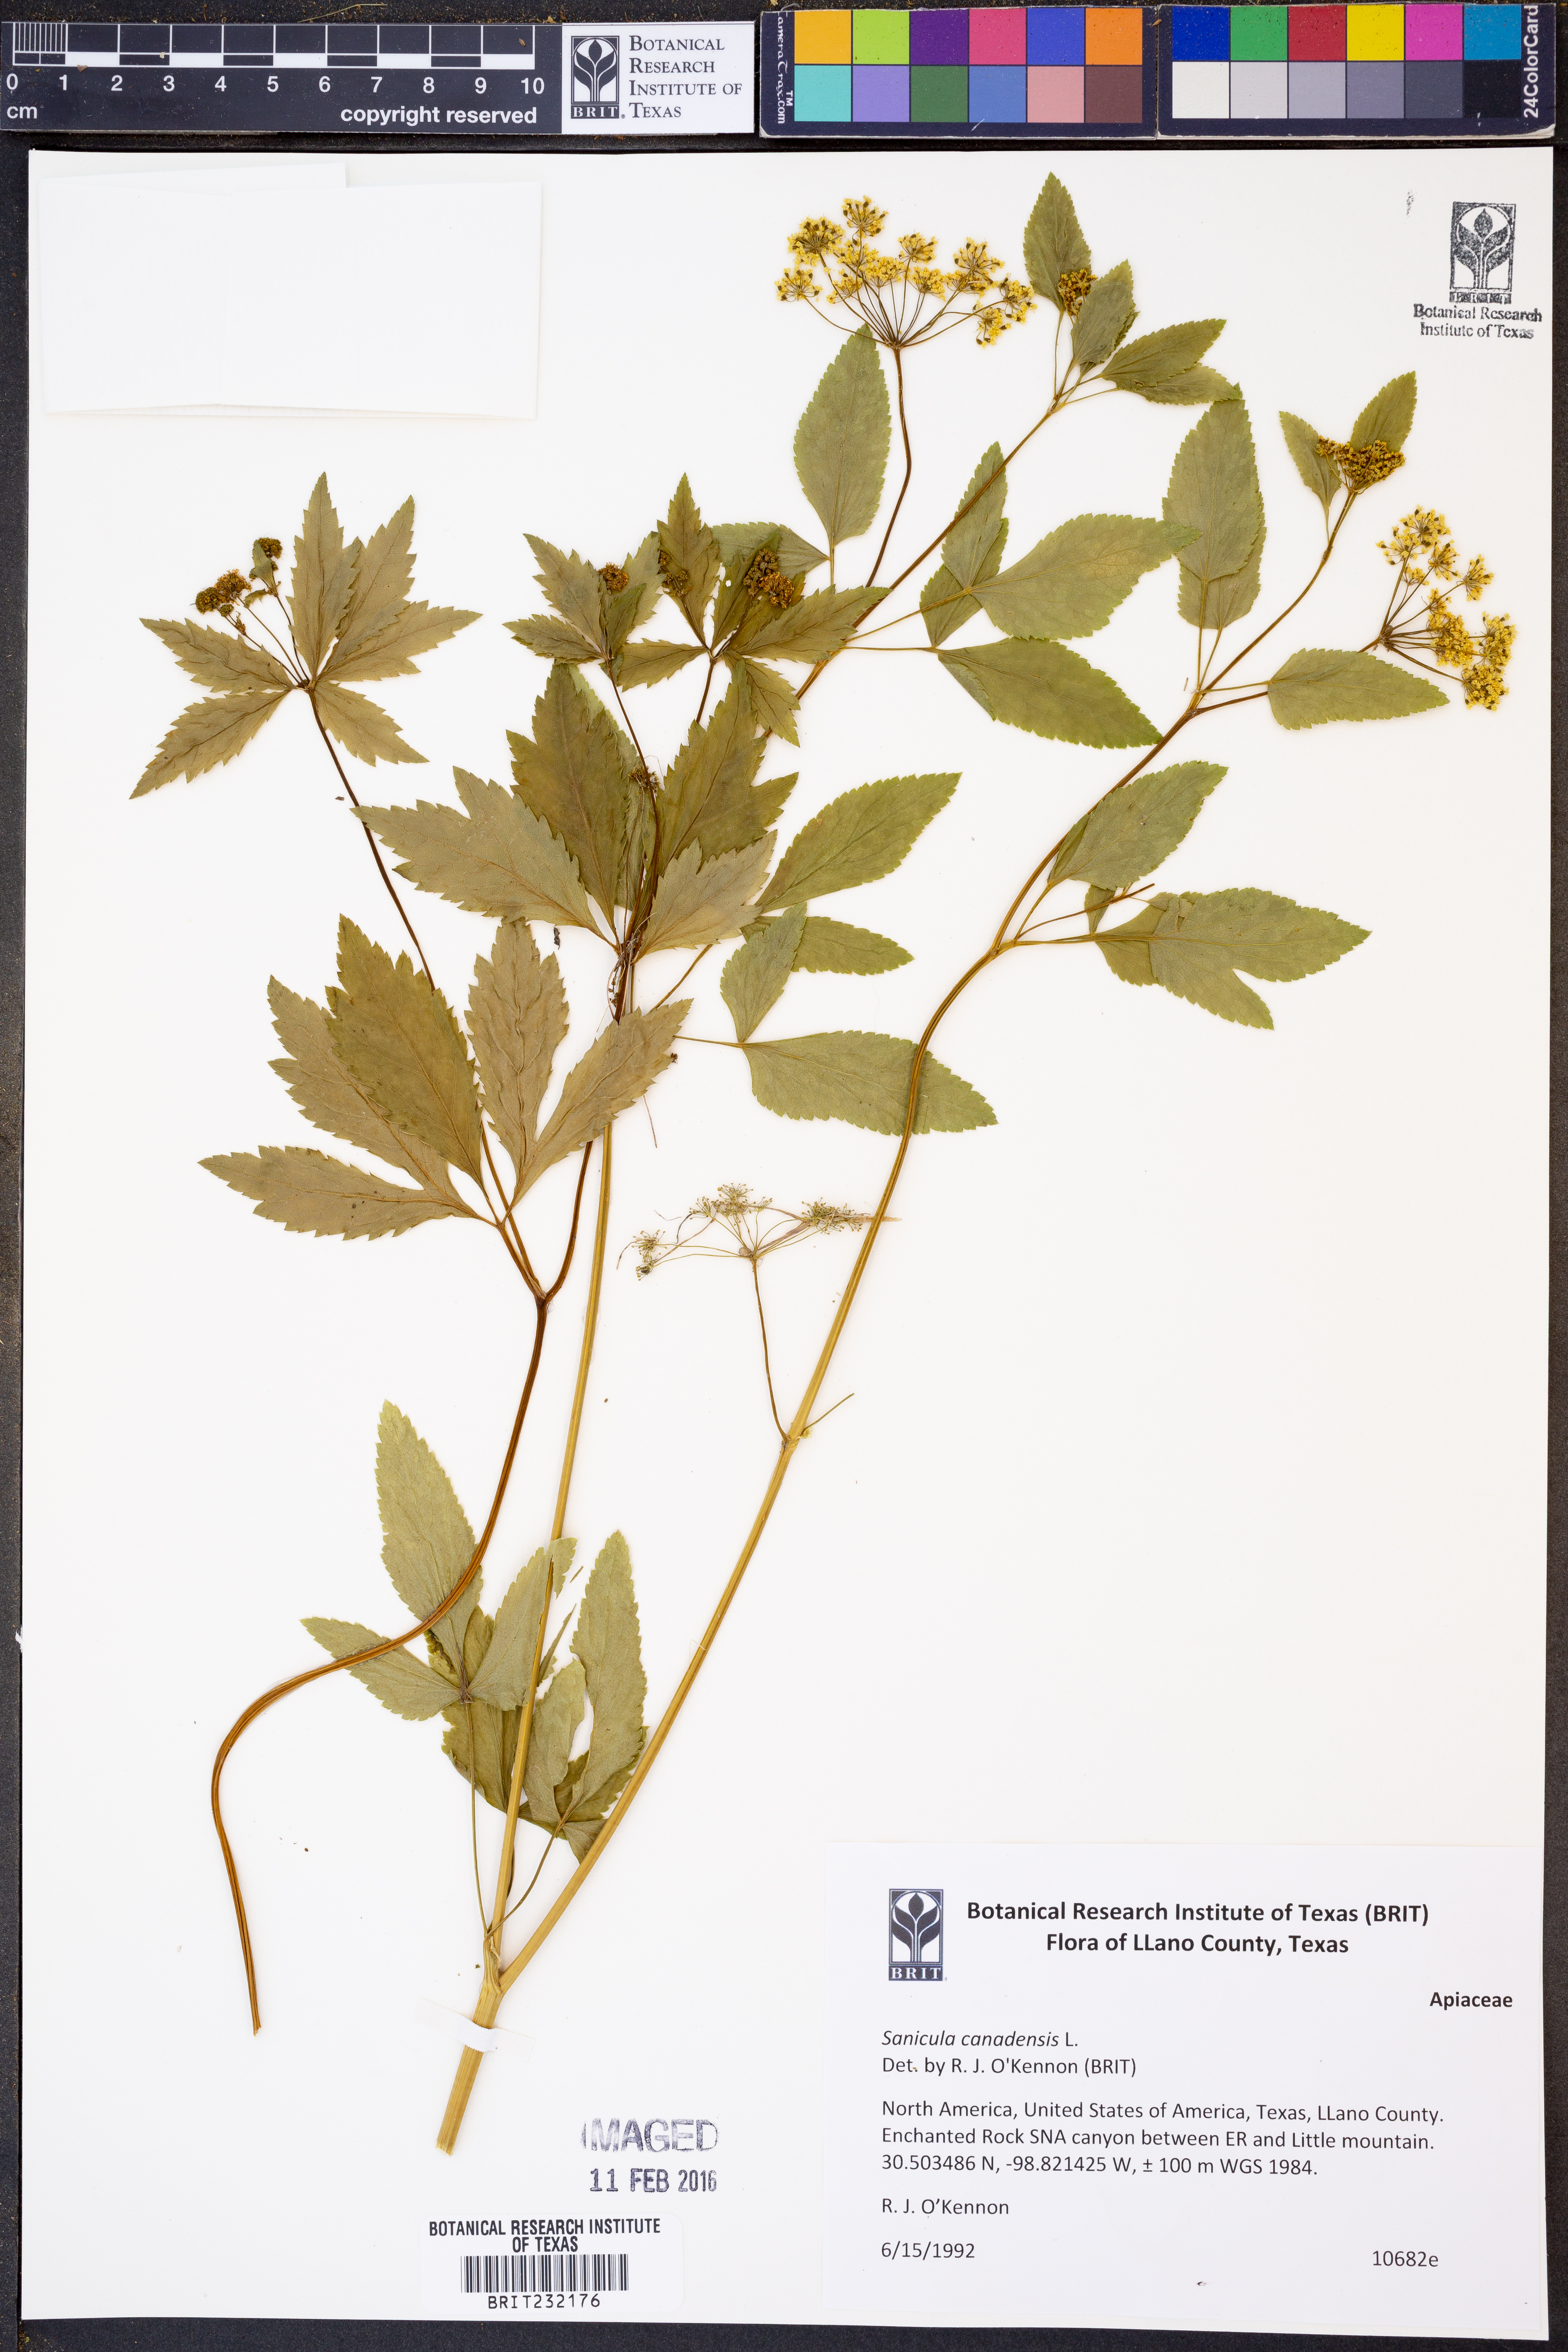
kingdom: Plantae
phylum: Tracheophyta
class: Magnoliopsida
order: Apiales
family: Apiaceae
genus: Sanicula
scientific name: Sanicula canadensis
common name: Canada sanicle
